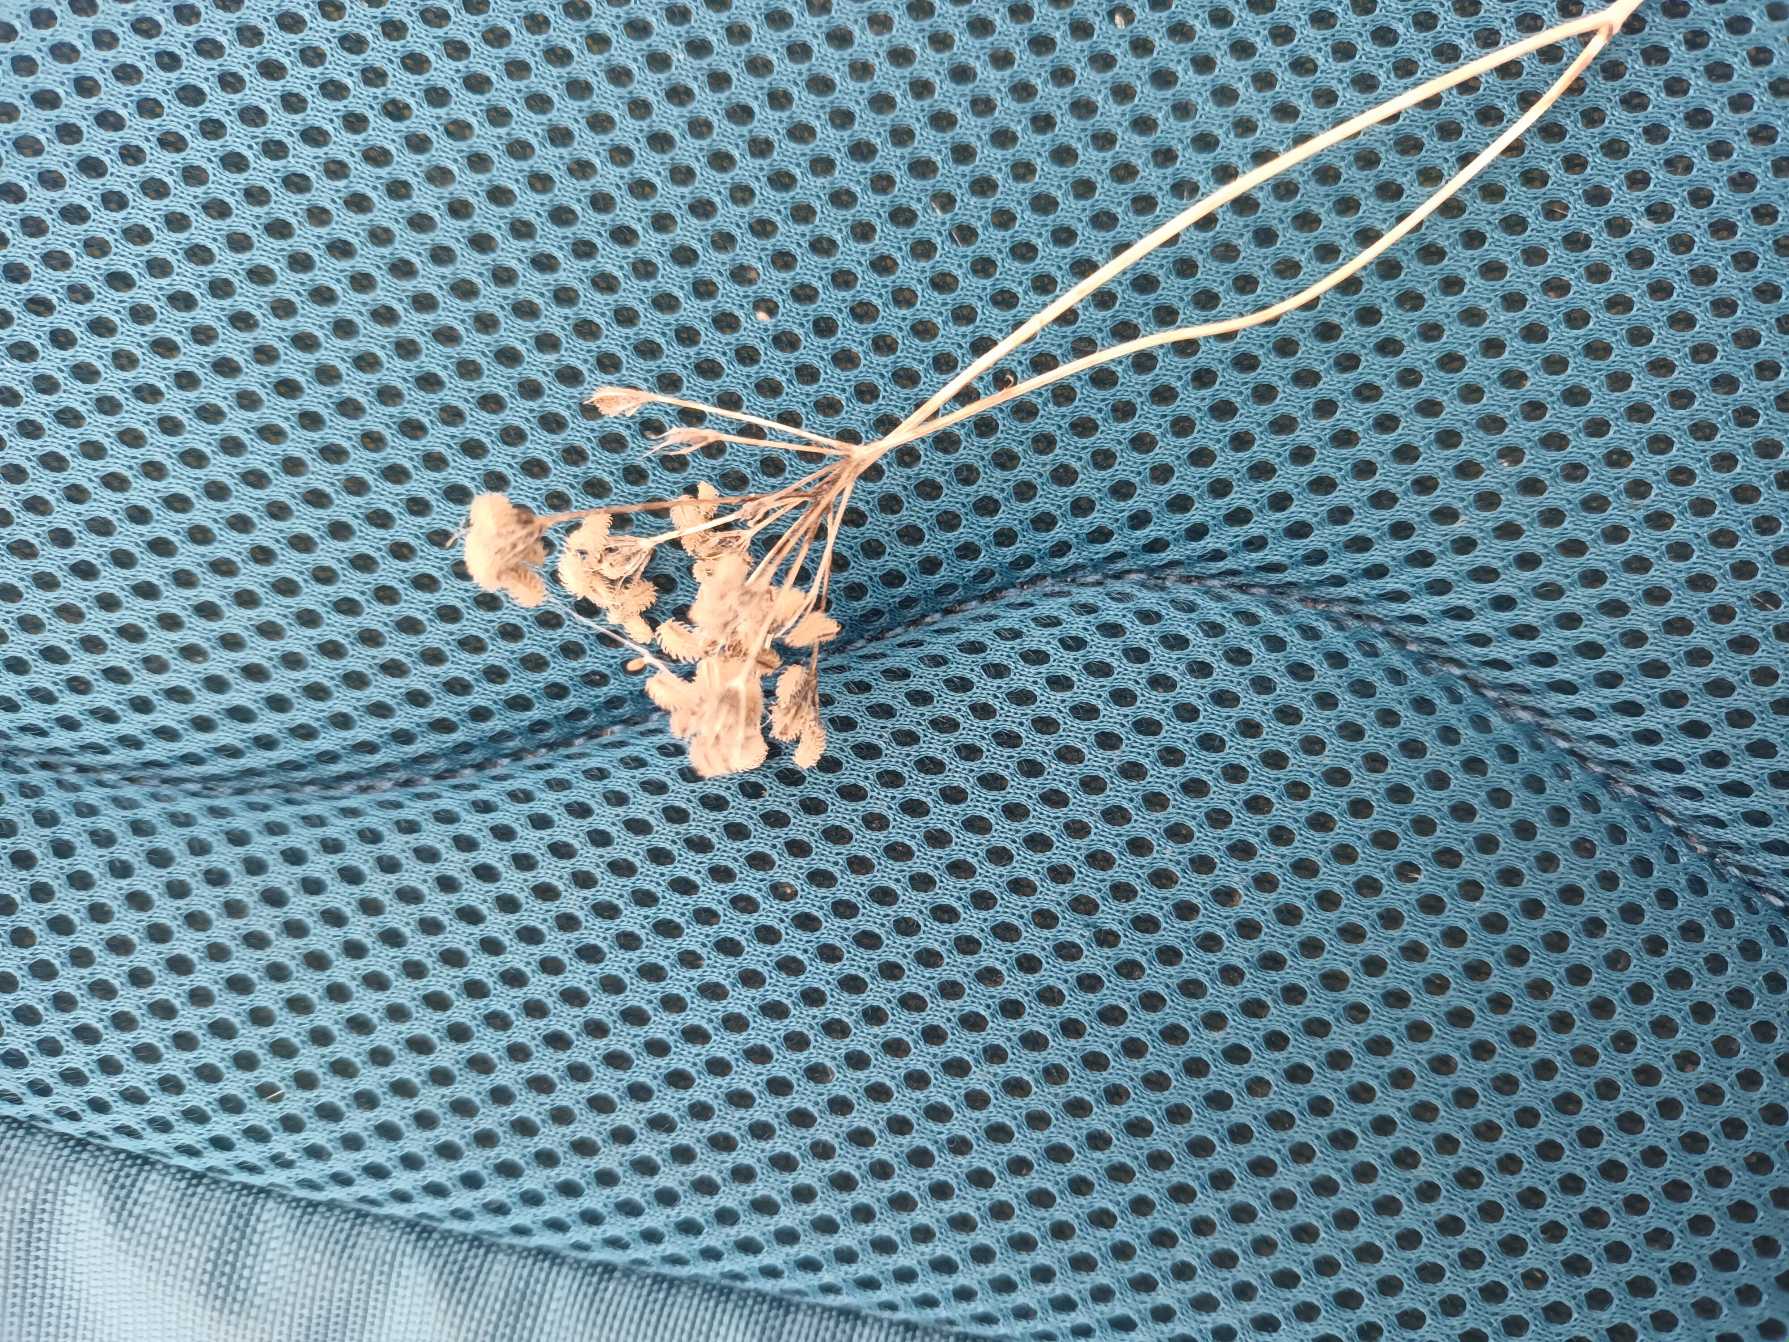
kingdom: Plantae
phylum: Tracheophyta
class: Magnoliopsida
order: Apiales
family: Apiaceae
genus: Torilis
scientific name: Torilis japonica
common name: Hvas randfrø
